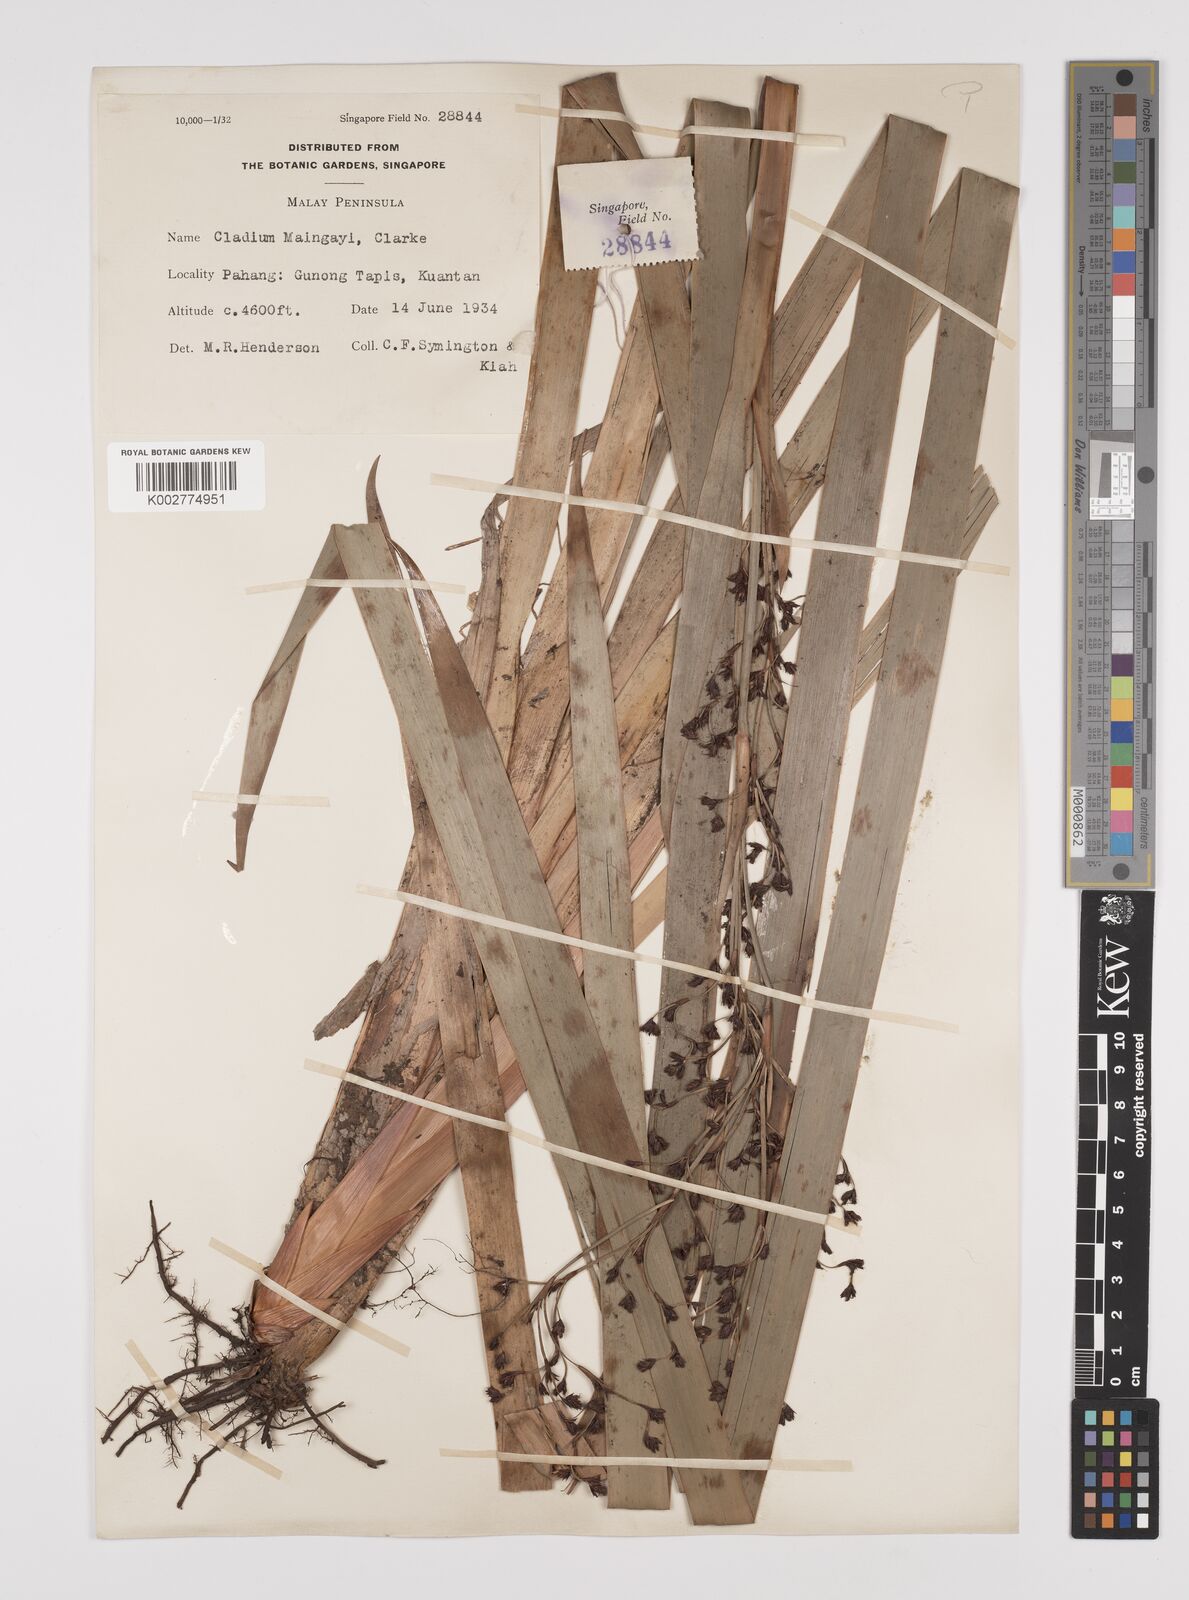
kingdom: Plantae
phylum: Tracheophyta
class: Liliopsida
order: Poales
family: Cyperaceae
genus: Machaerina
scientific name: Machaerina maingayi
